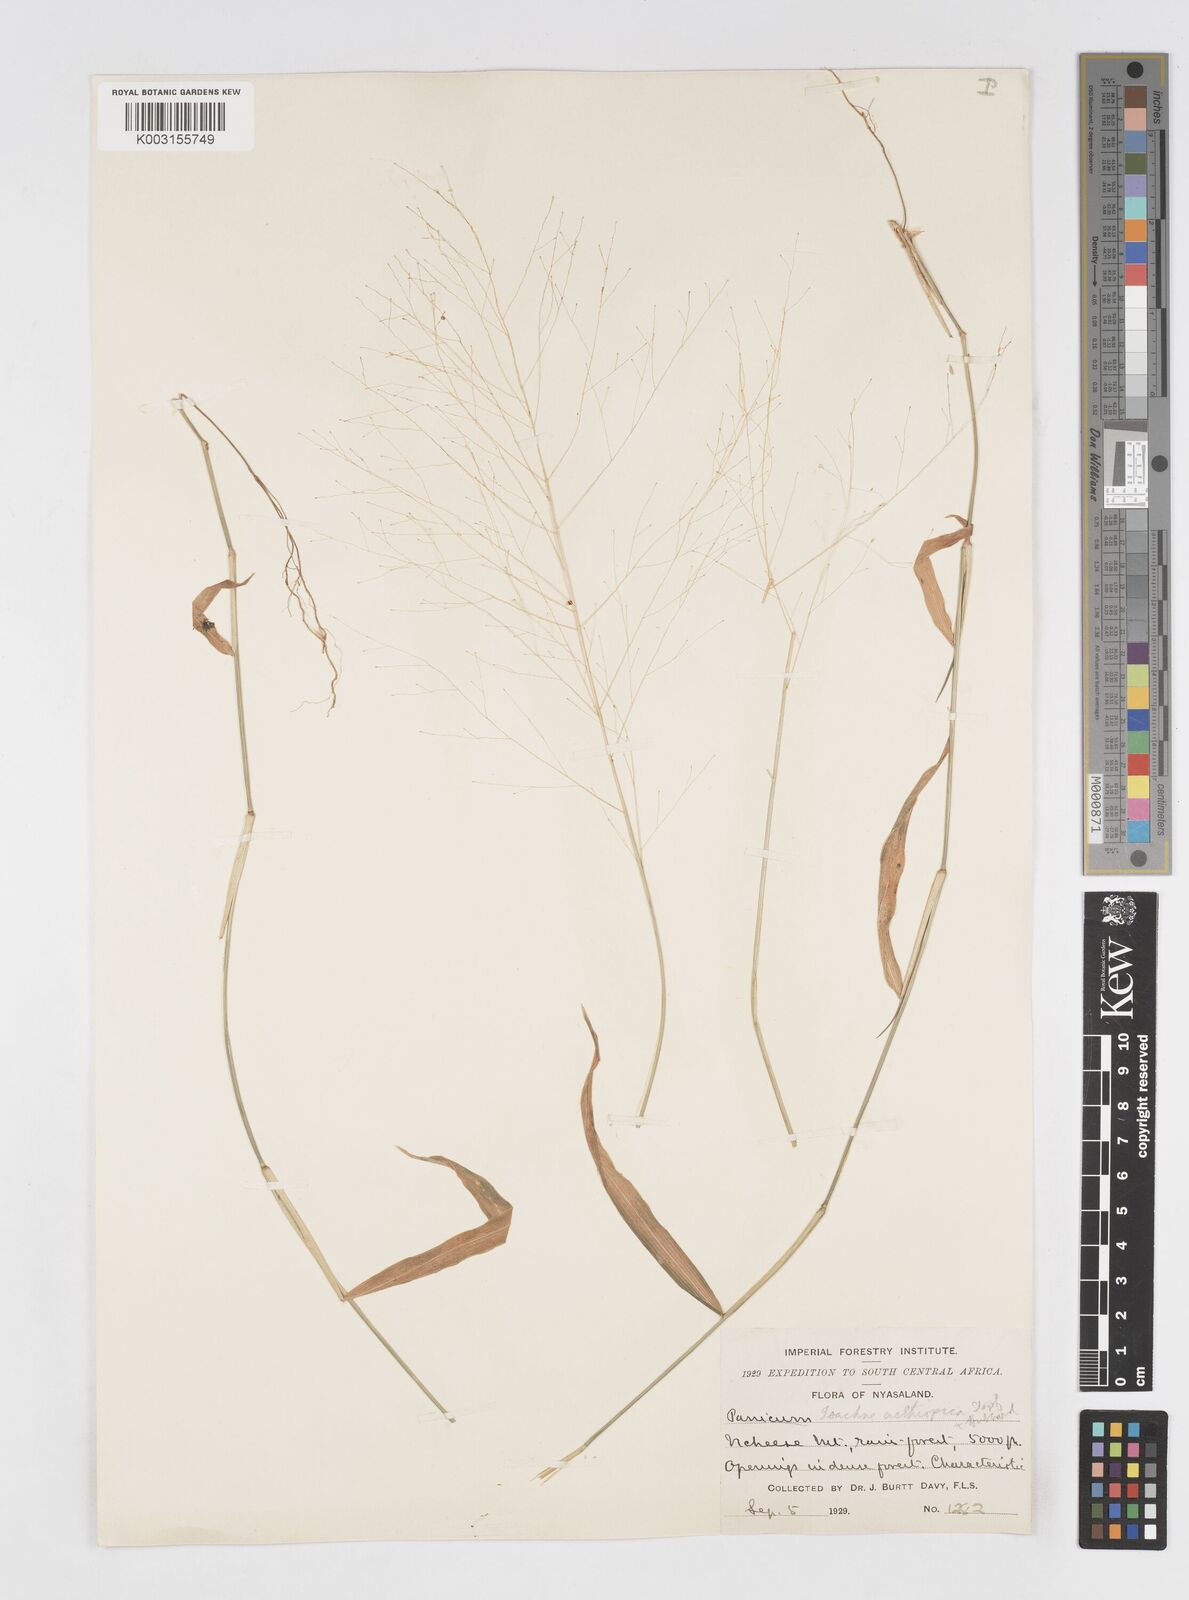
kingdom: Plantae
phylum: Tracheophyta
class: Liliopsida
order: Poales
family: Poaceae
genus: Isachne
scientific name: Isachne mauritiana
